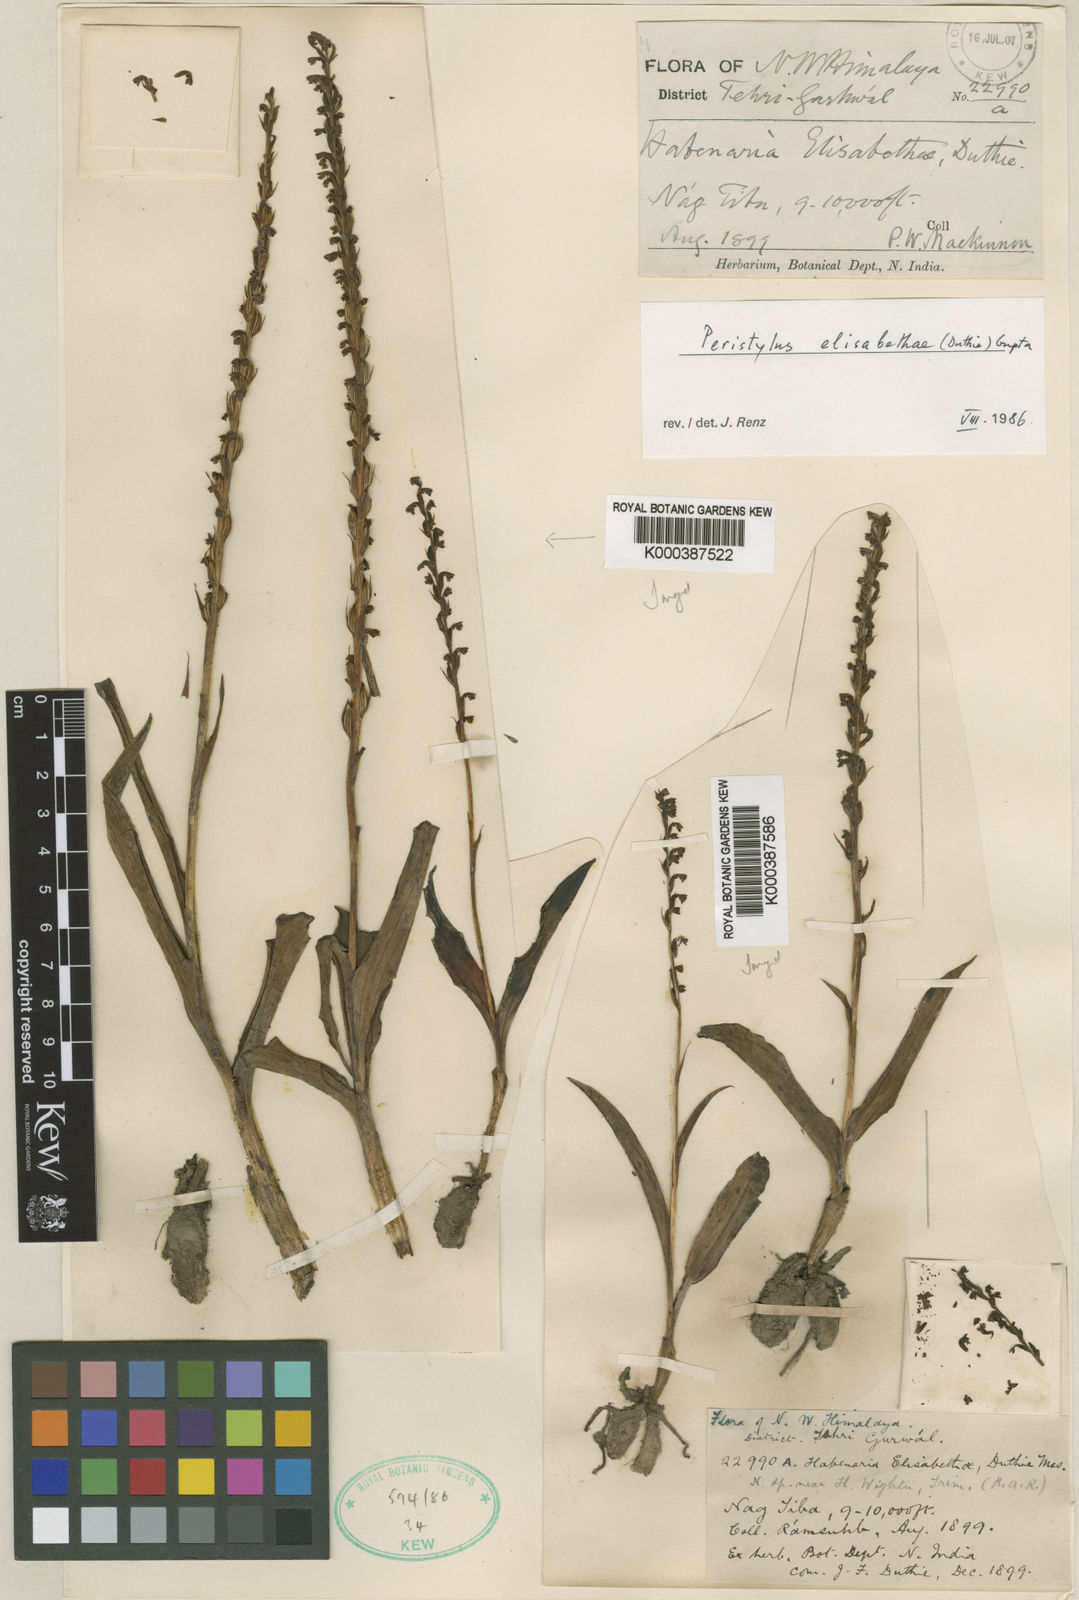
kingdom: Plantae
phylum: Tracheophyta
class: Liliopsida
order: Asparagales
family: Orchidaceae
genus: Herminium
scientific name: Herminium elisabethae
